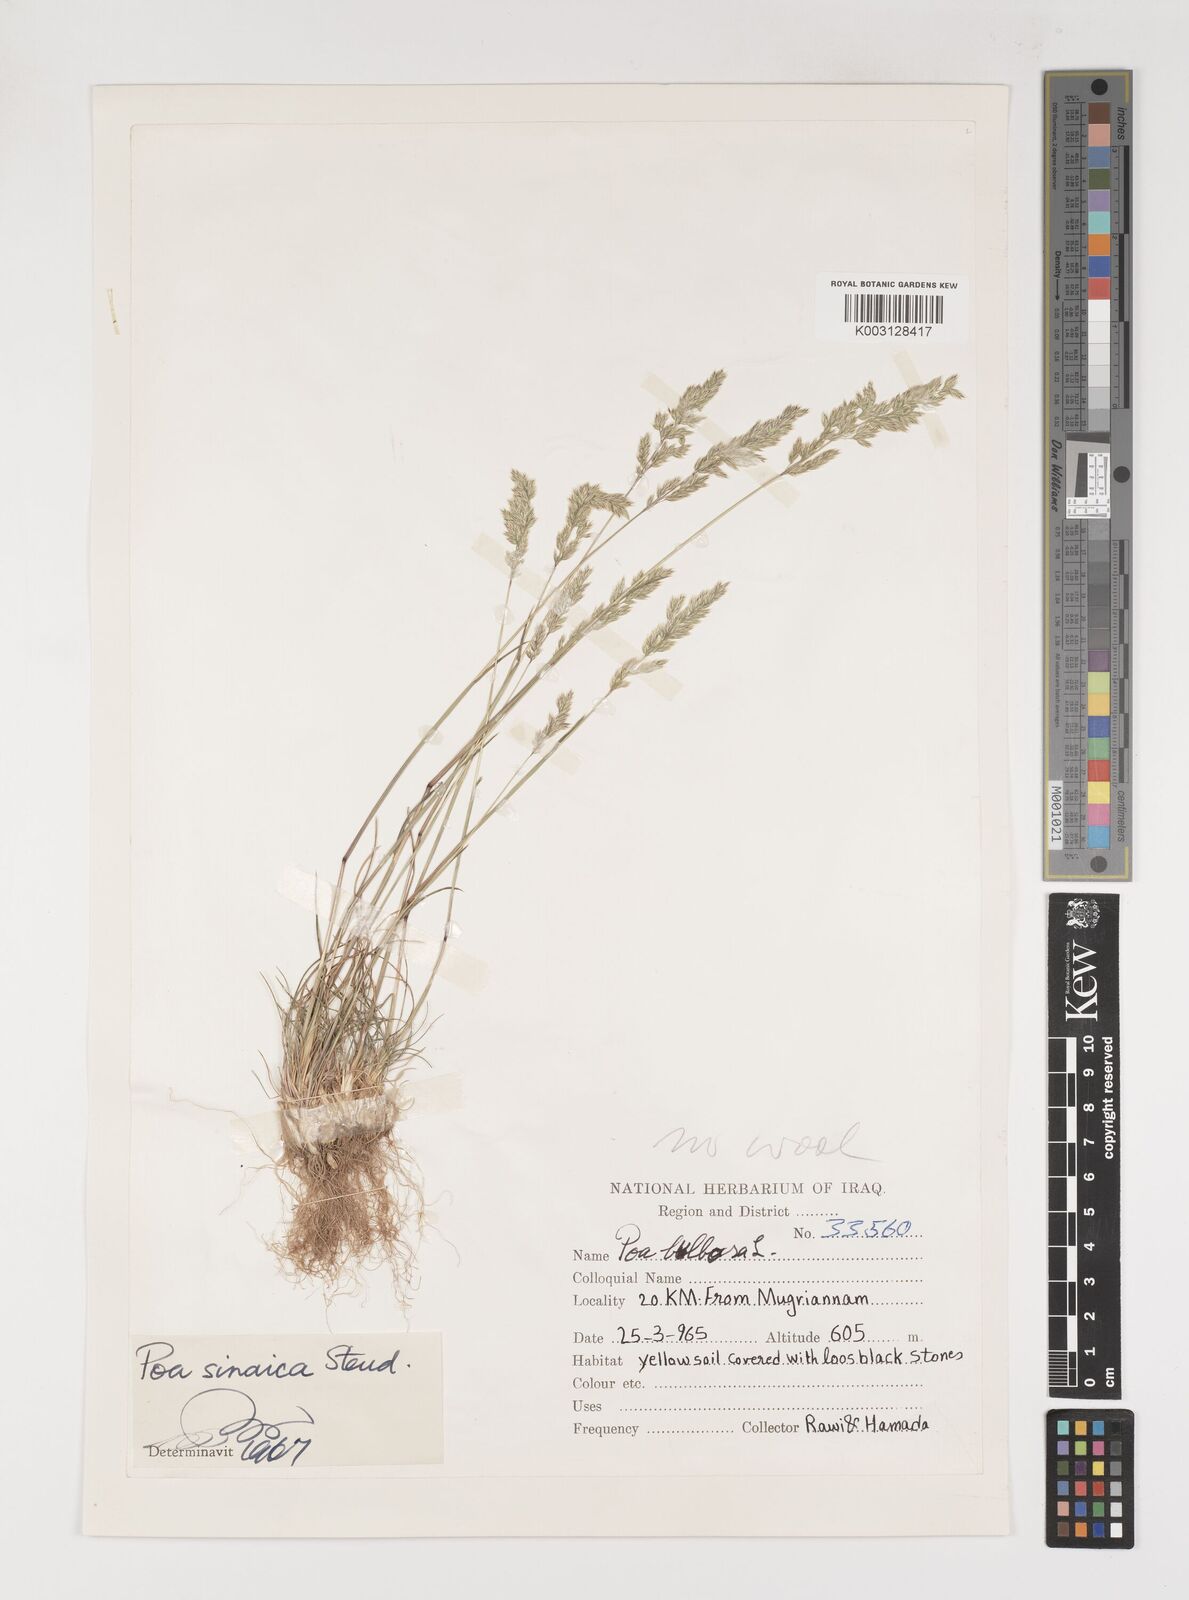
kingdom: Plantae
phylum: Tracheophyta
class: Liliopsida
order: Poales
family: Poaceae
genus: Poa
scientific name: Poa sinaica
